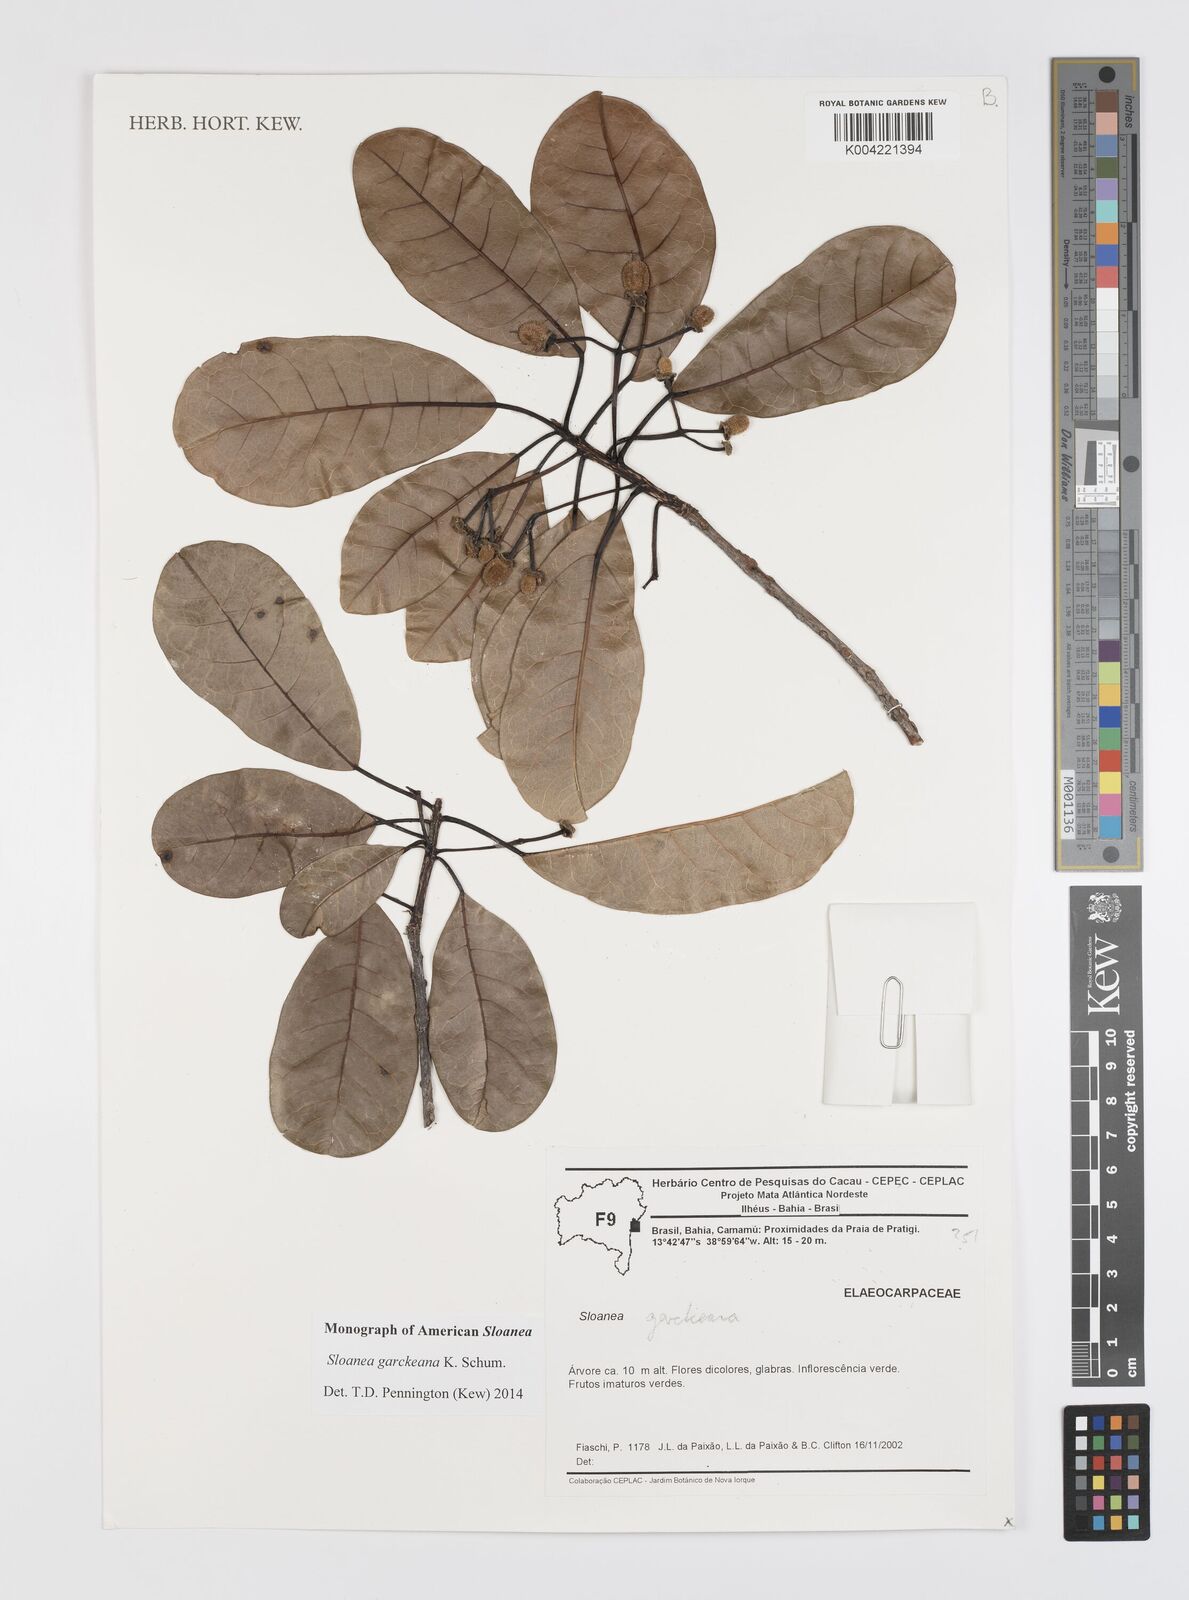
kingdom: Plantae
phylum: Tracheophyta
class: Magnoliopsida
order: Oxalidales
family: Elaeocarpaceae
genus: Sloanea
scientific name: Sloanea garckeana
